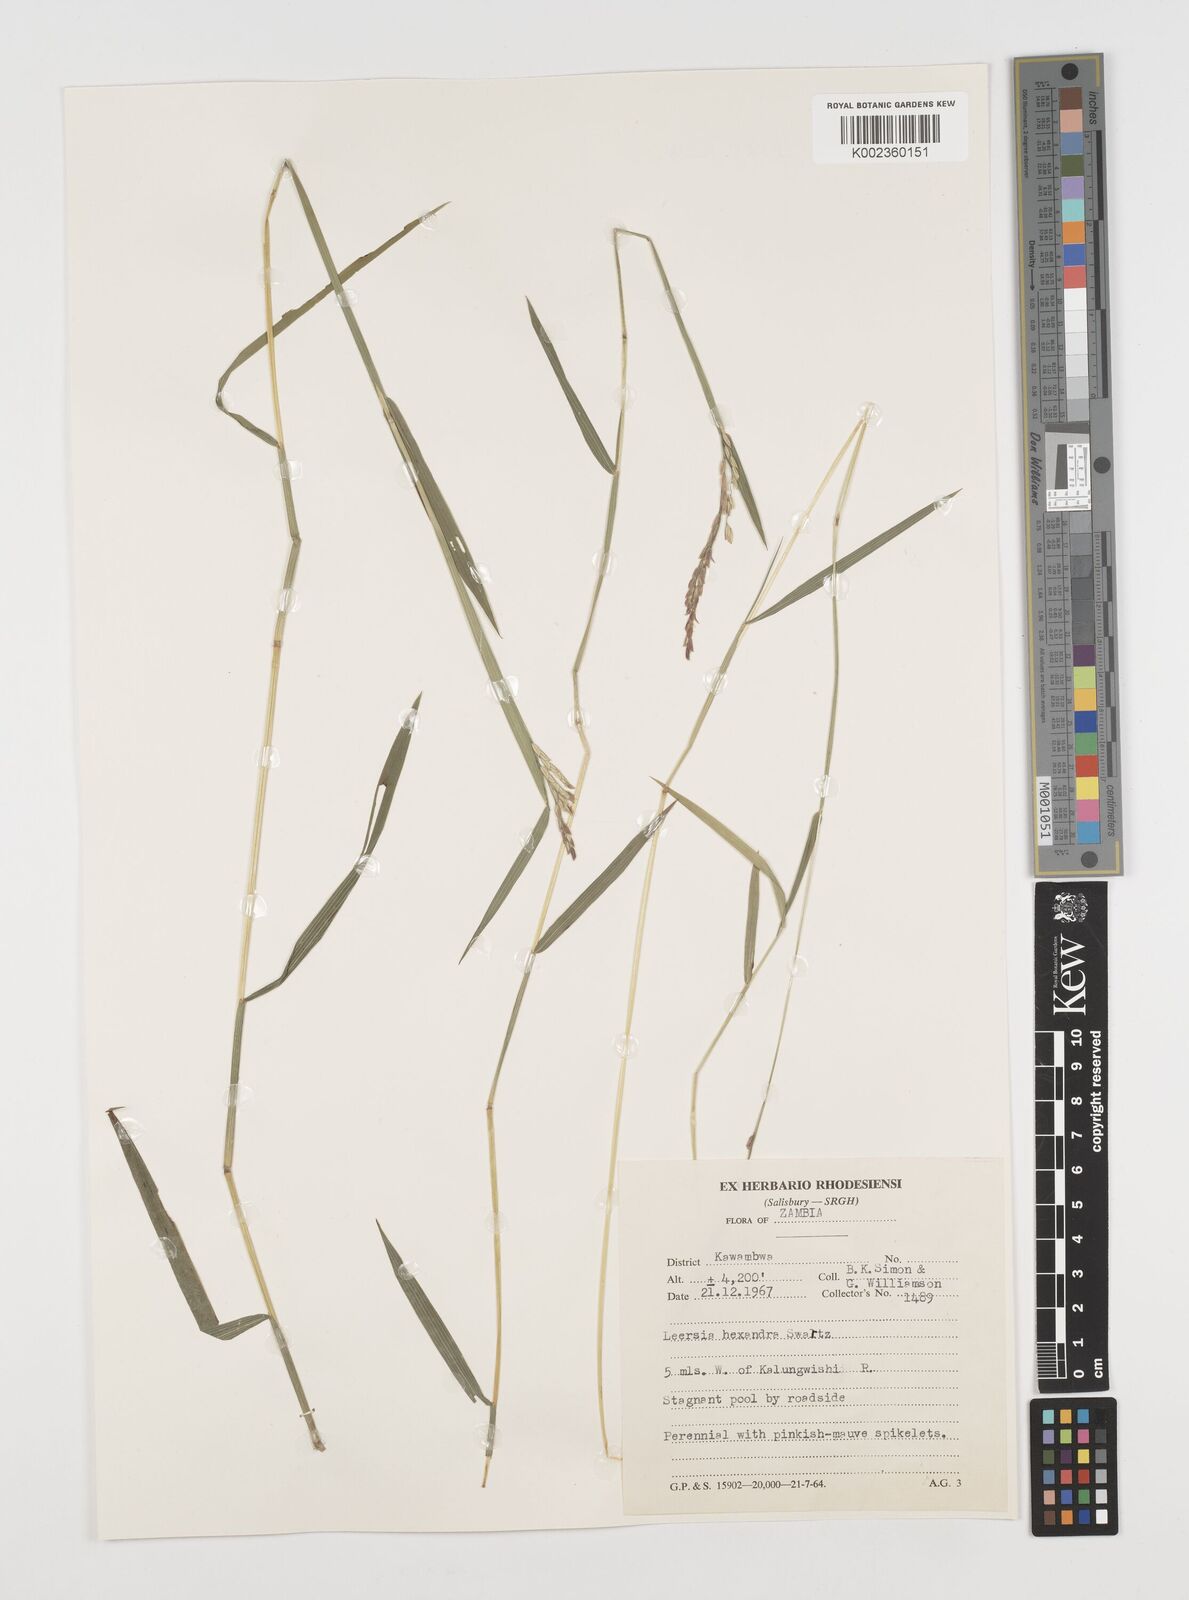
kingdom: Plantae
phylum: Tracheophyta
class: Liliopsida
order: Poales
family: Poaceae
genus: Leersia
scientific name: Leersia hexandra
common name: Southern cut grass
